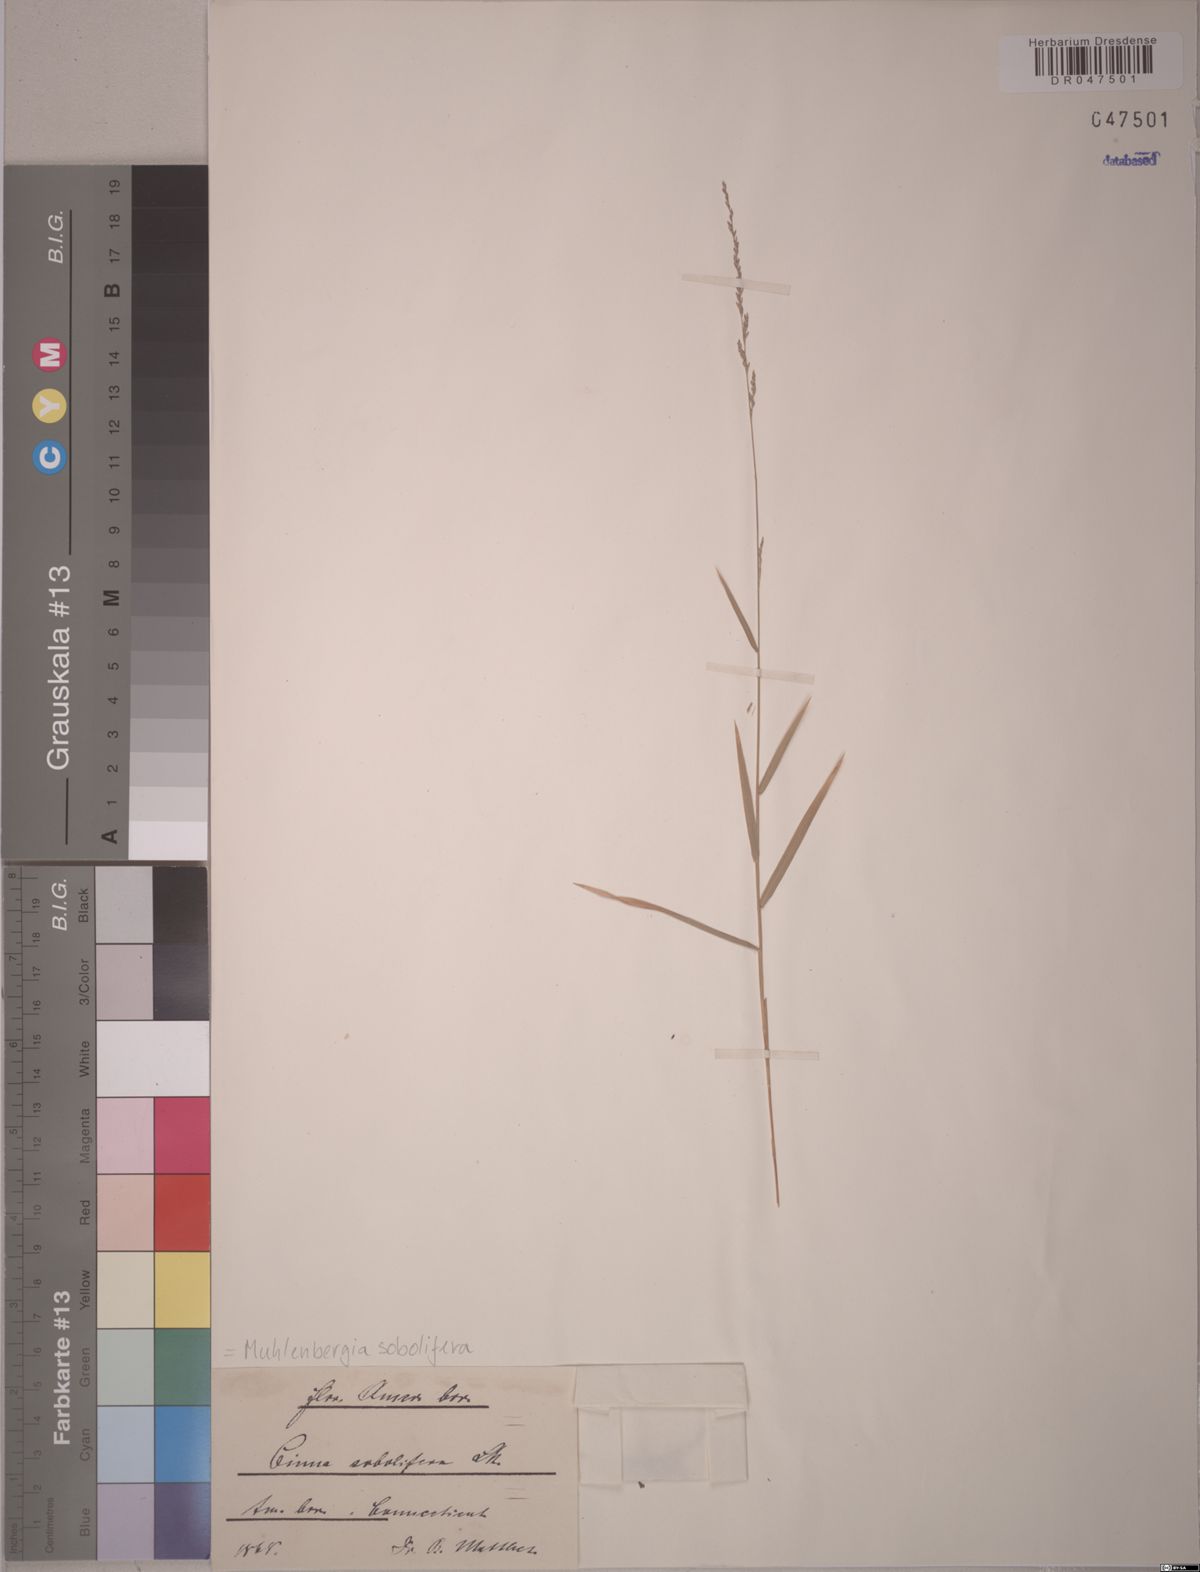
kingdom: Plantae
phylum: Tracheophyta
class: Liliopsida
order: Poales
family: Poaceae
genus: Muhlenbergia
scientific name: Muhlenbergia sobolifera
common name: Creeping muhly
